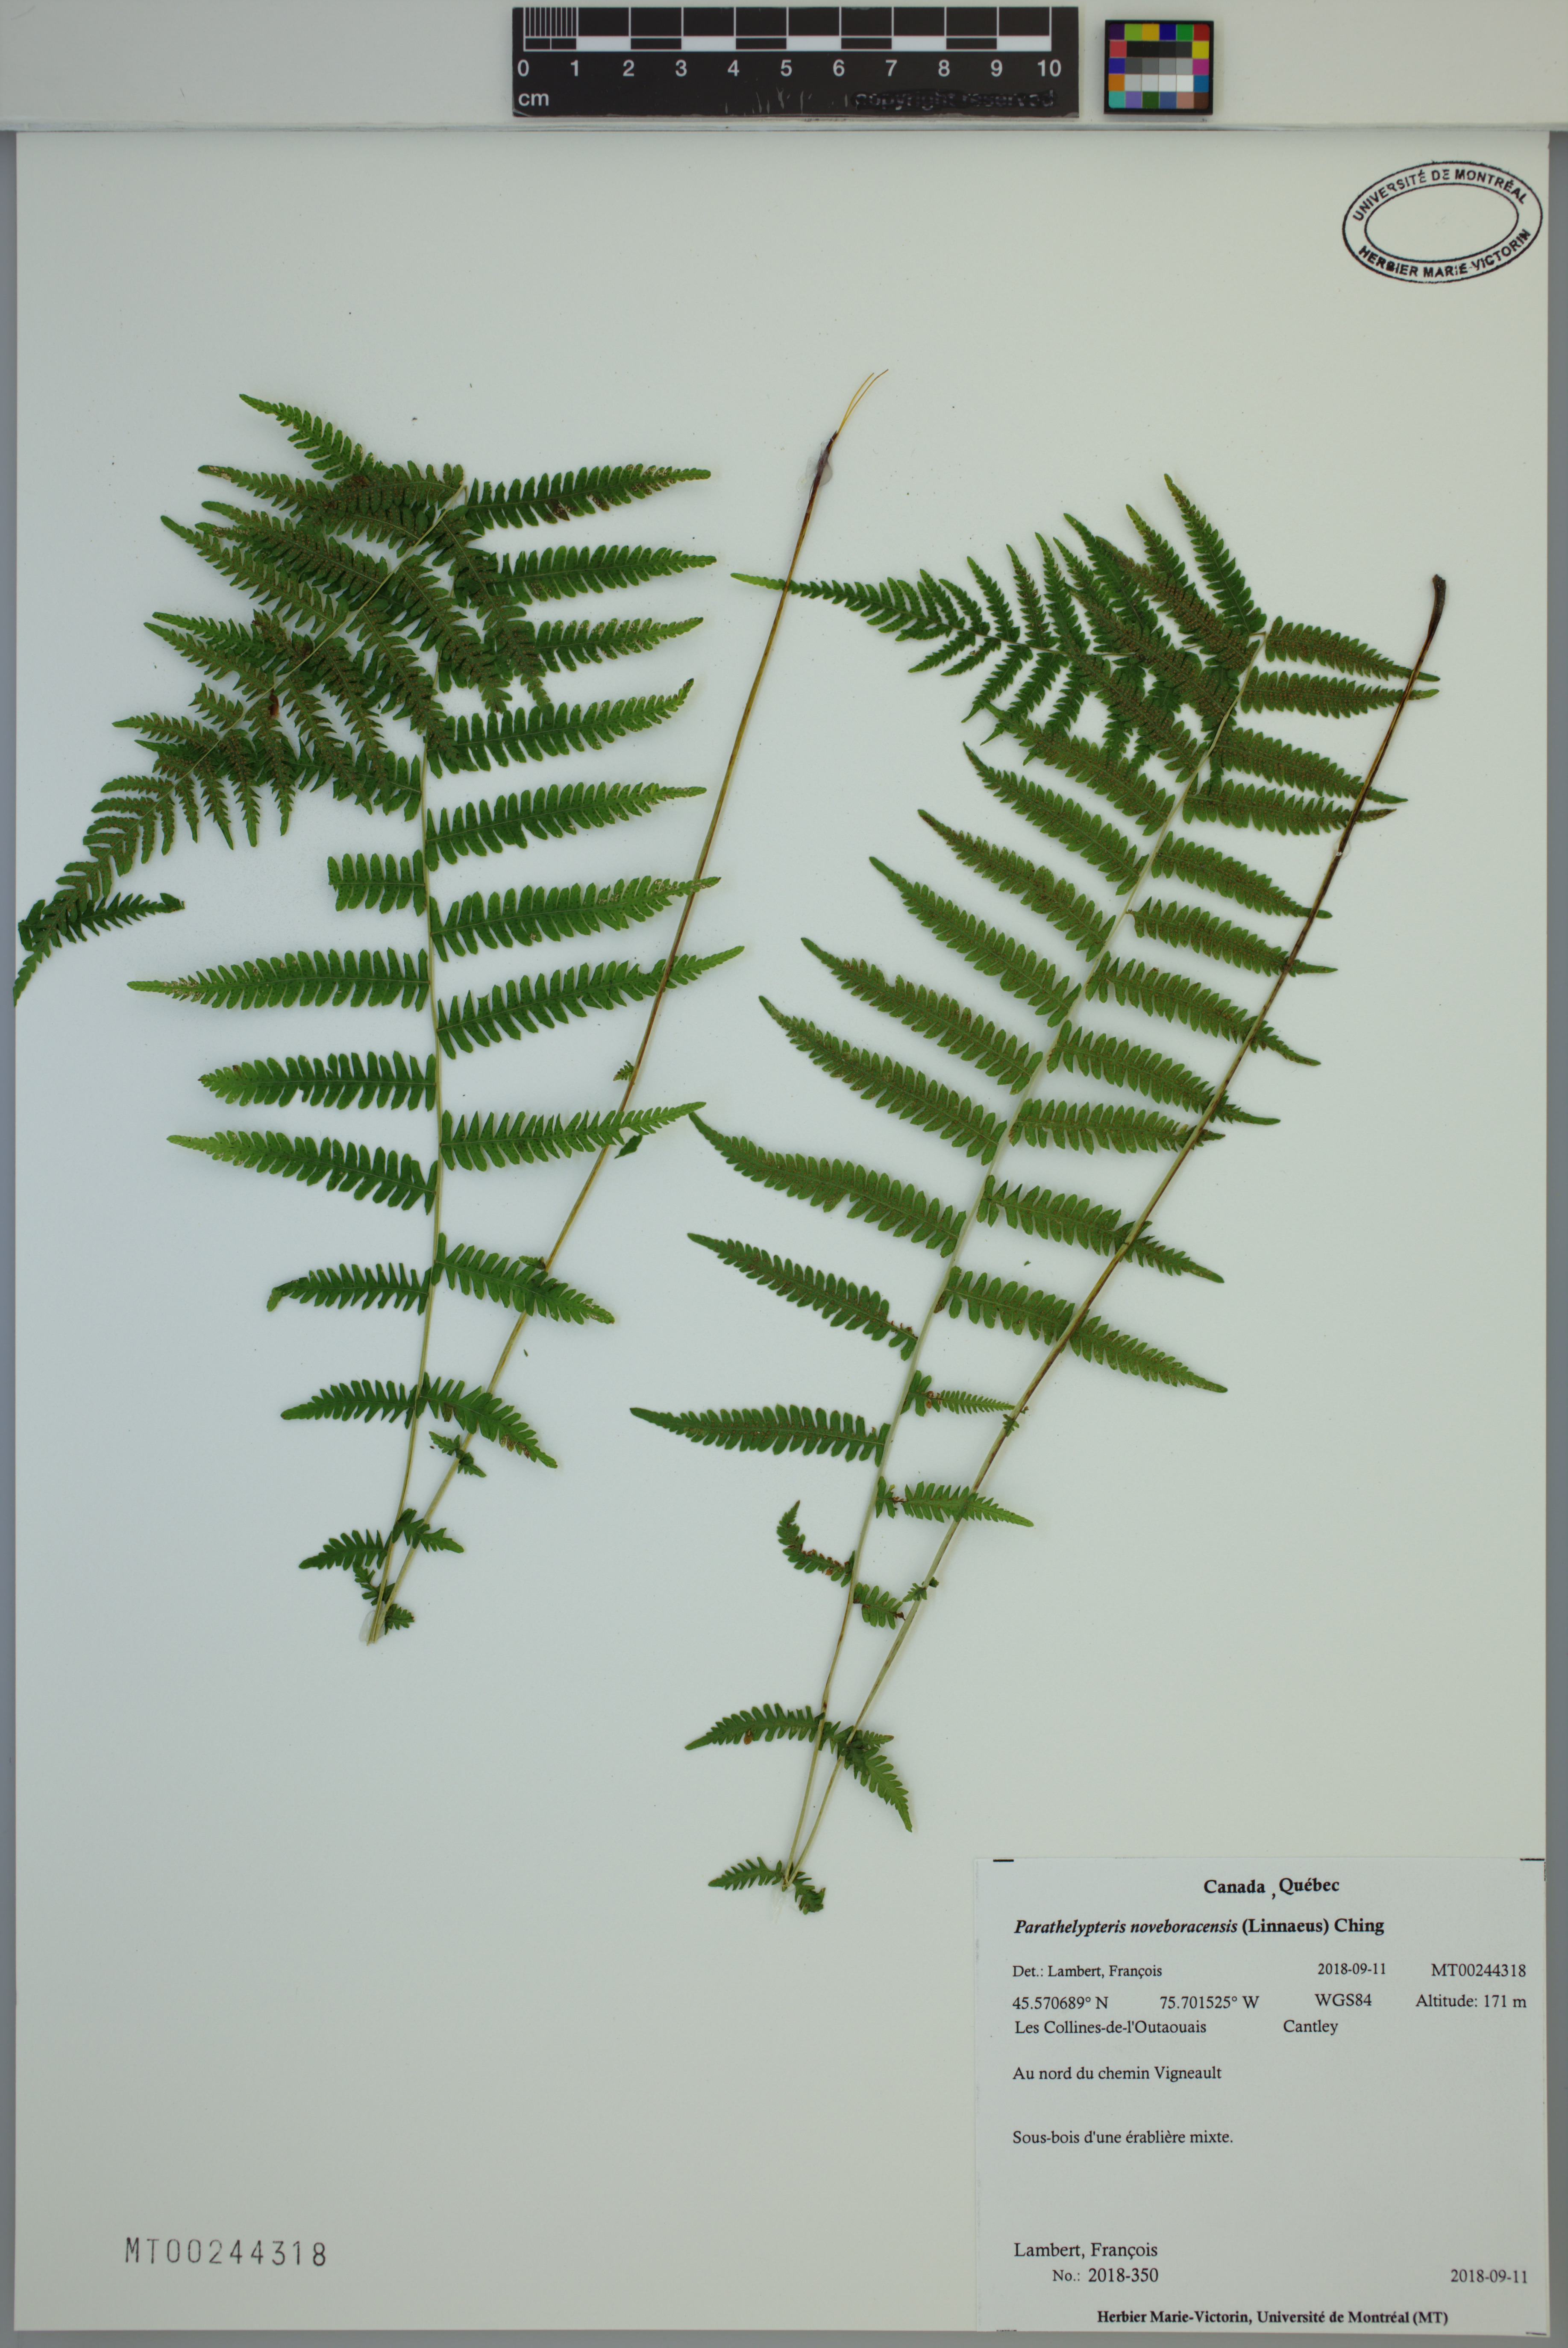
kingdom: Plantae
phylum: Tracheophyta
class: Polypodiopsida
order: Polypodiales
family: Thelypteridaceae
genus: Amauropelta
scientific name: Amauropelta noveboracensis
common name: New york fern
